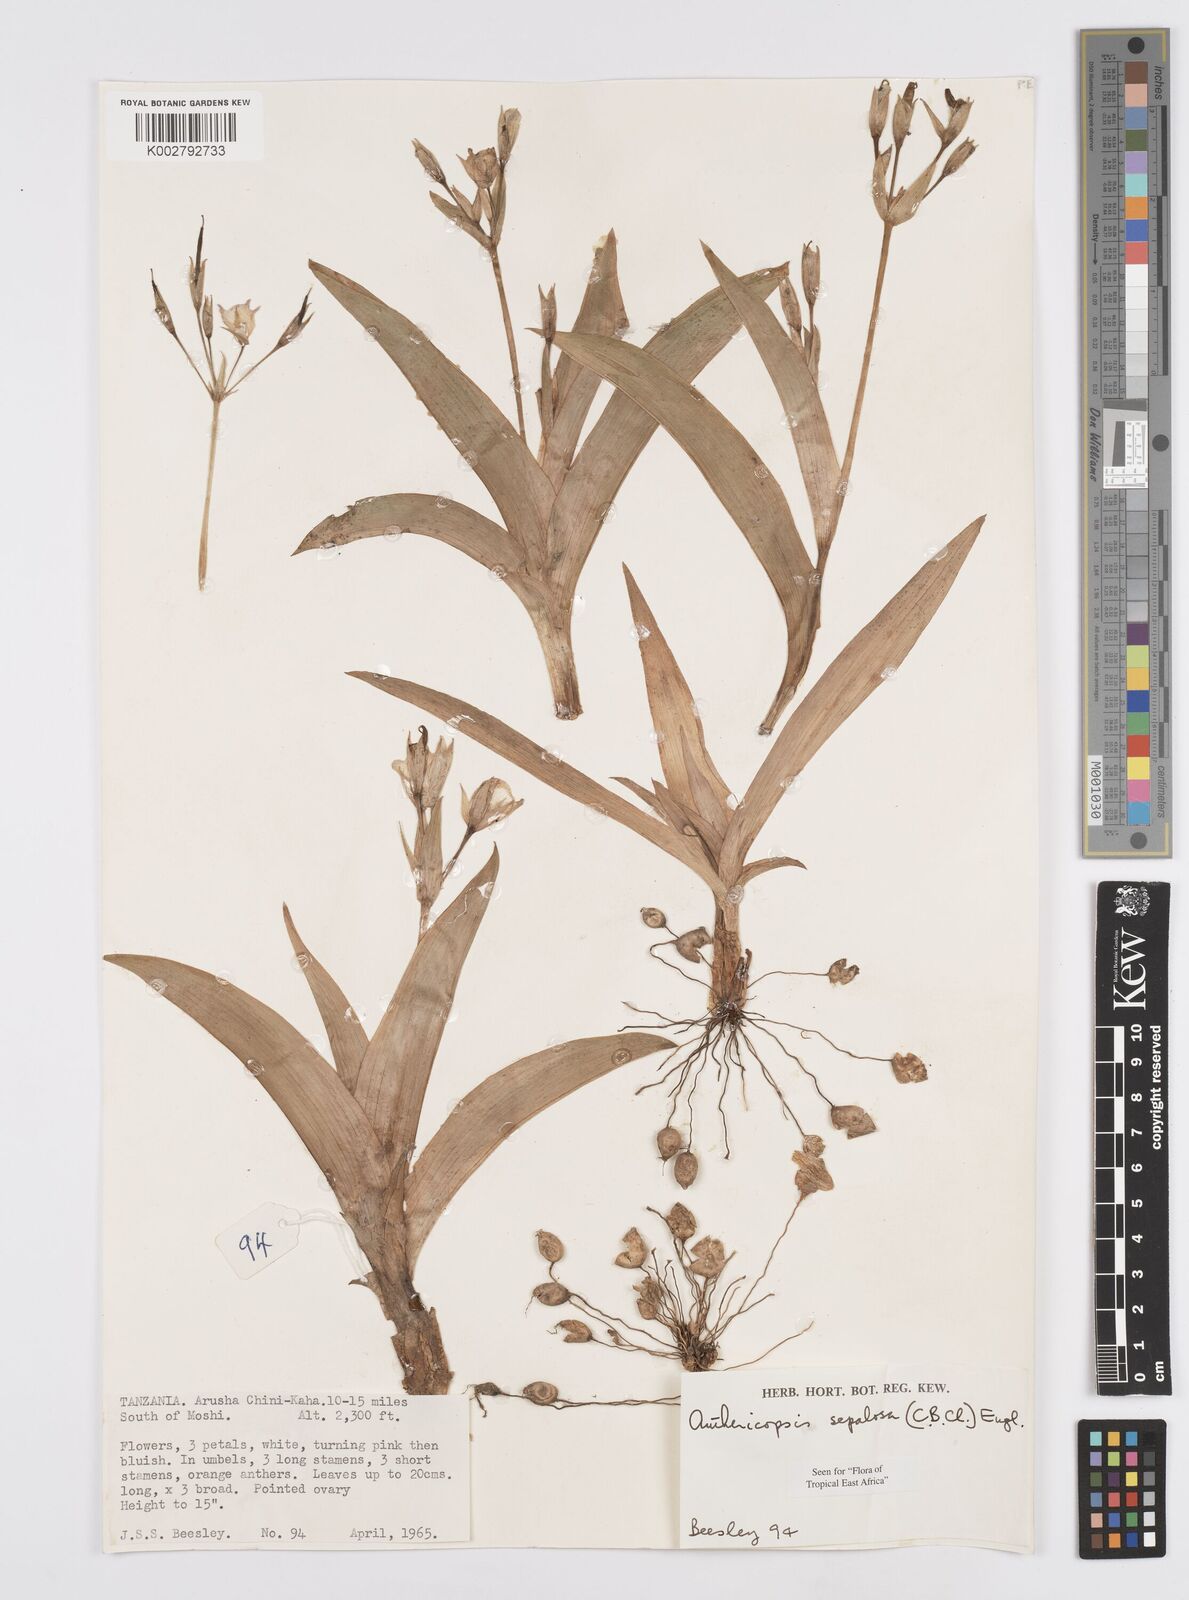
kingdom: Plantae
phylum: Tracheophyta
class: Liliopsida
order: Commelinales
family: Commelinaceae
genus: Anthericopsis
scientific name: Anthericopsis sepalosa
